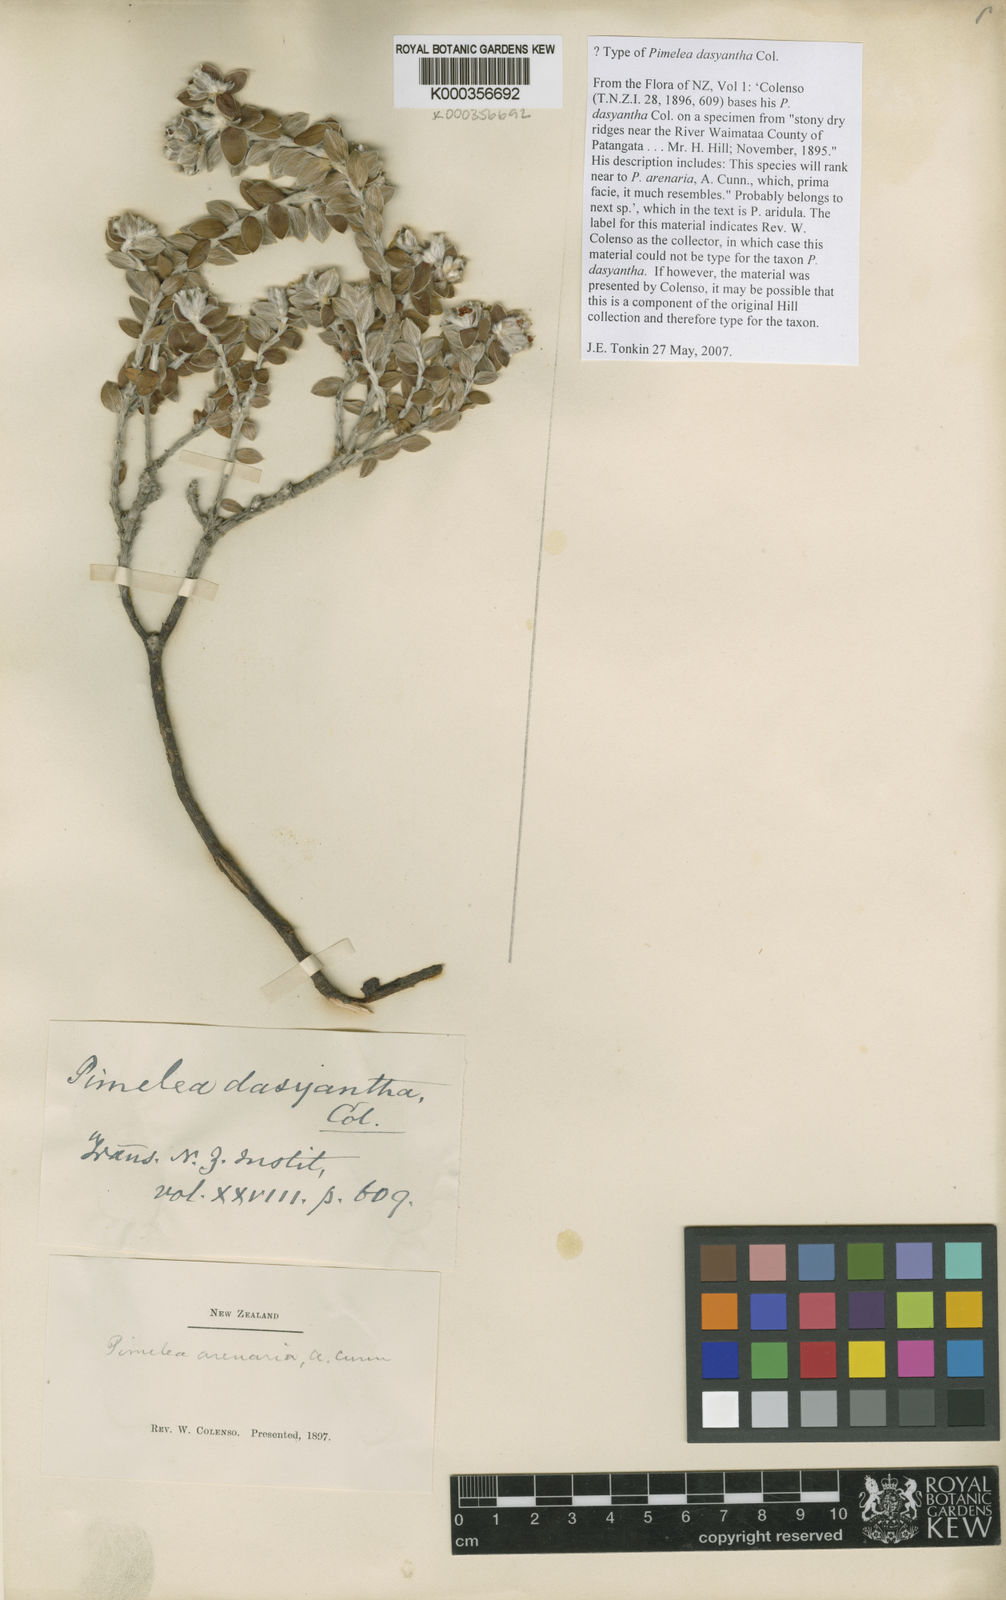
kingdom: Plantae
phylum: Tracheophyta
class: Magnoliopsida
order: Malvales
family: Thymelaeaceae
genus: Pimelea
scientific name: Pimelea villosa
